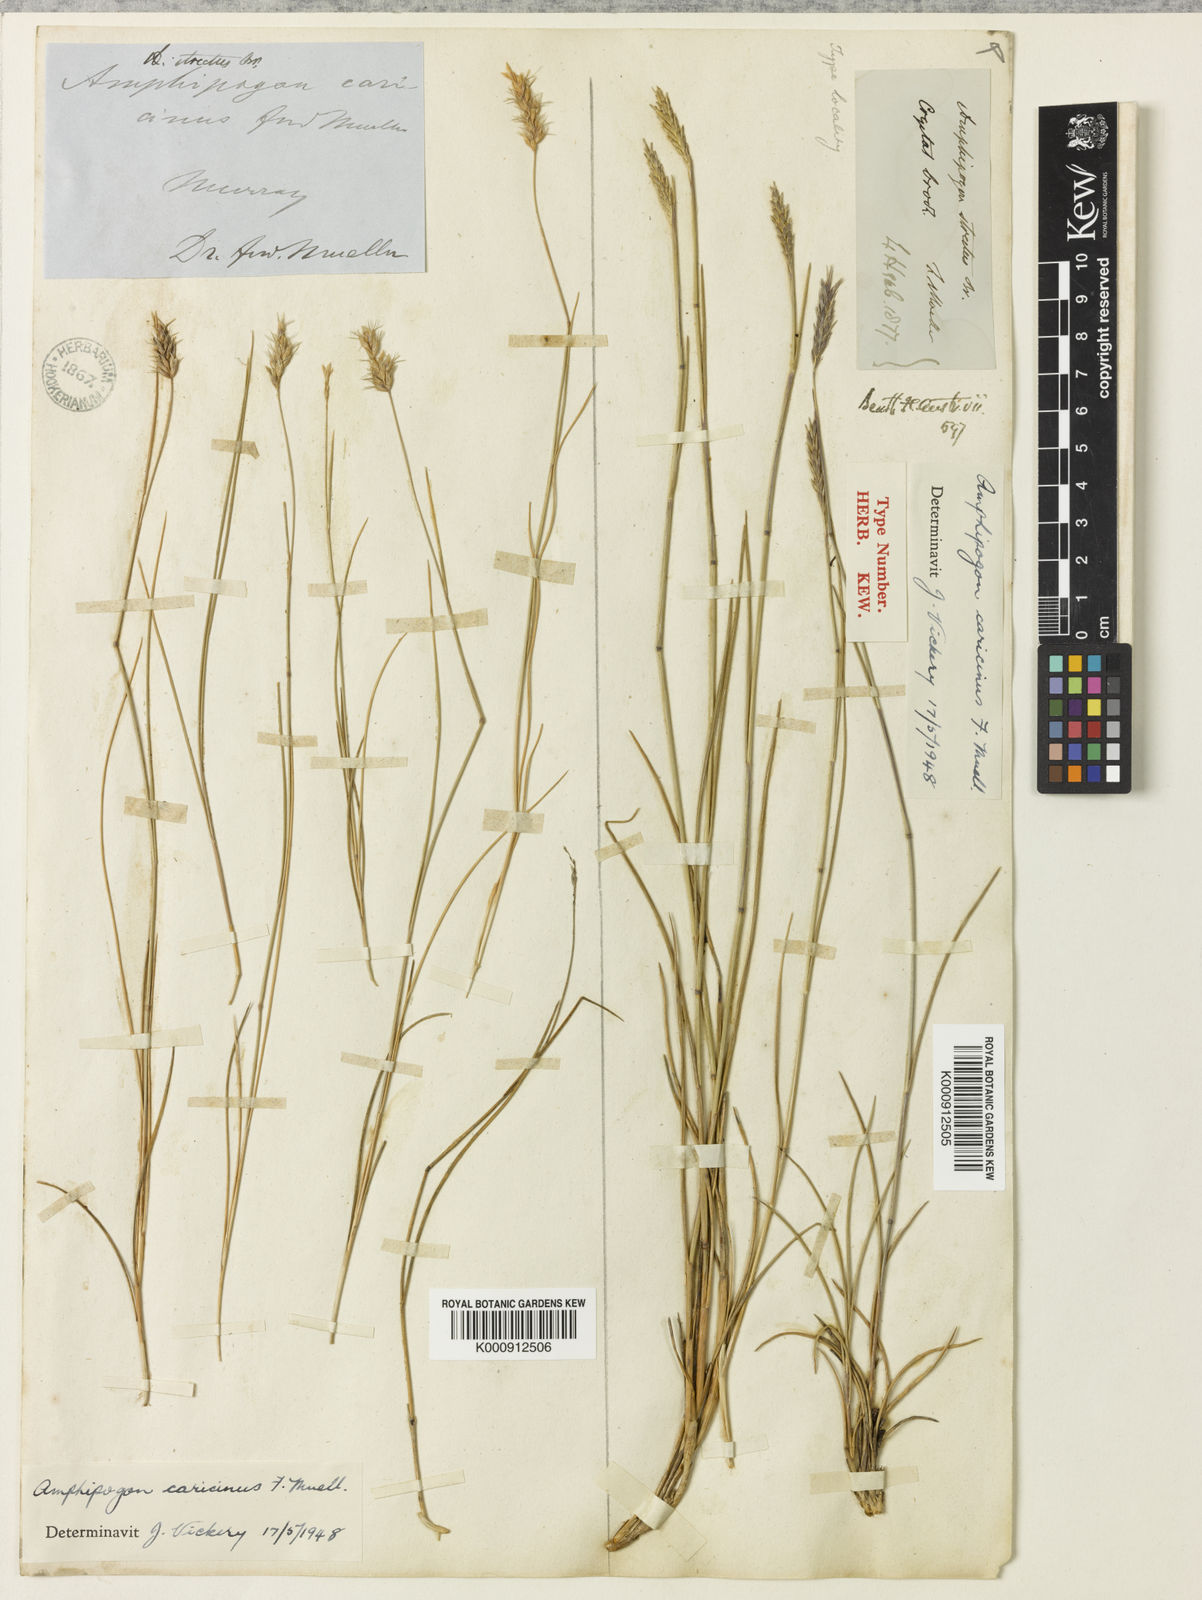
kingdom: Plantae
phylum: Tracheophyta
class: Liliopsida
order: Poales
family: Poaceae
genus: Amphipogon
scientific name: Amphipogon caricinus
